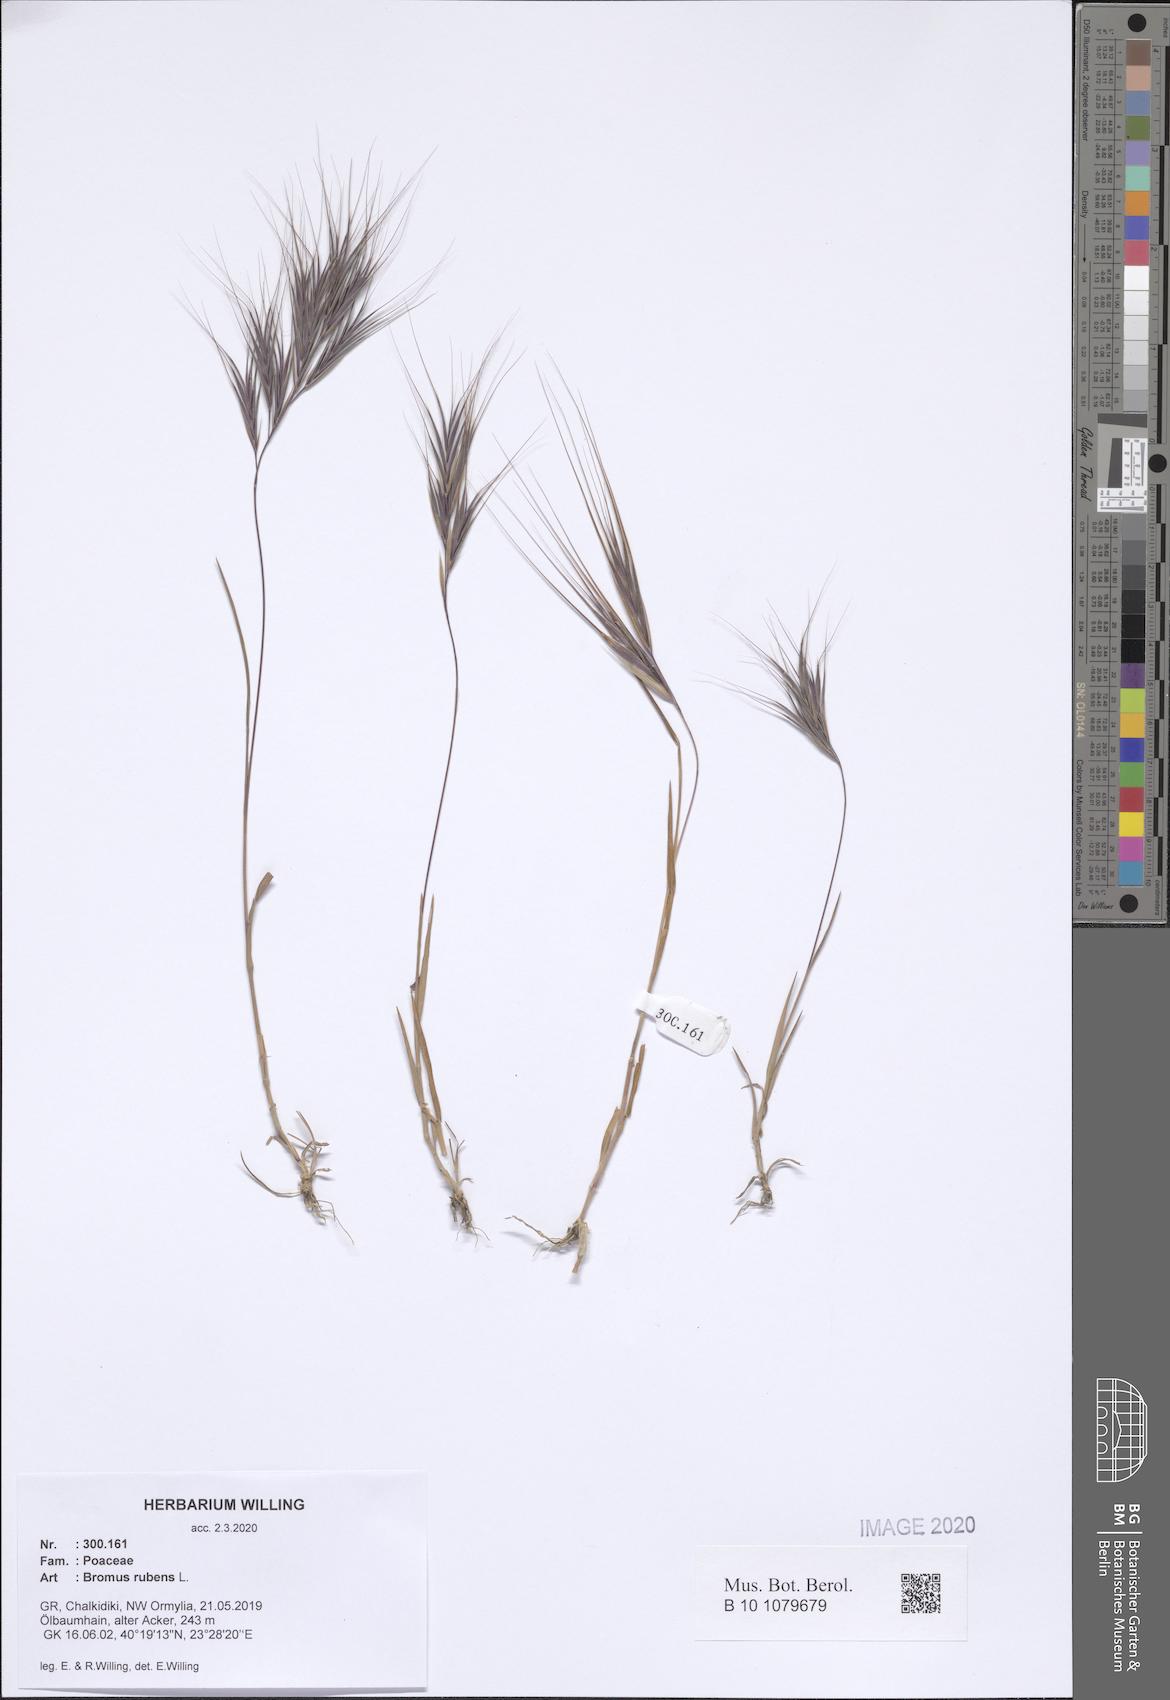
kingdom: Plantae
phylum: Tracheophyta
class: Liliopsida
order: Poales
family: Poaceae
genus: Bromus
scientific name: Bromus rubens
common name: Red brome
